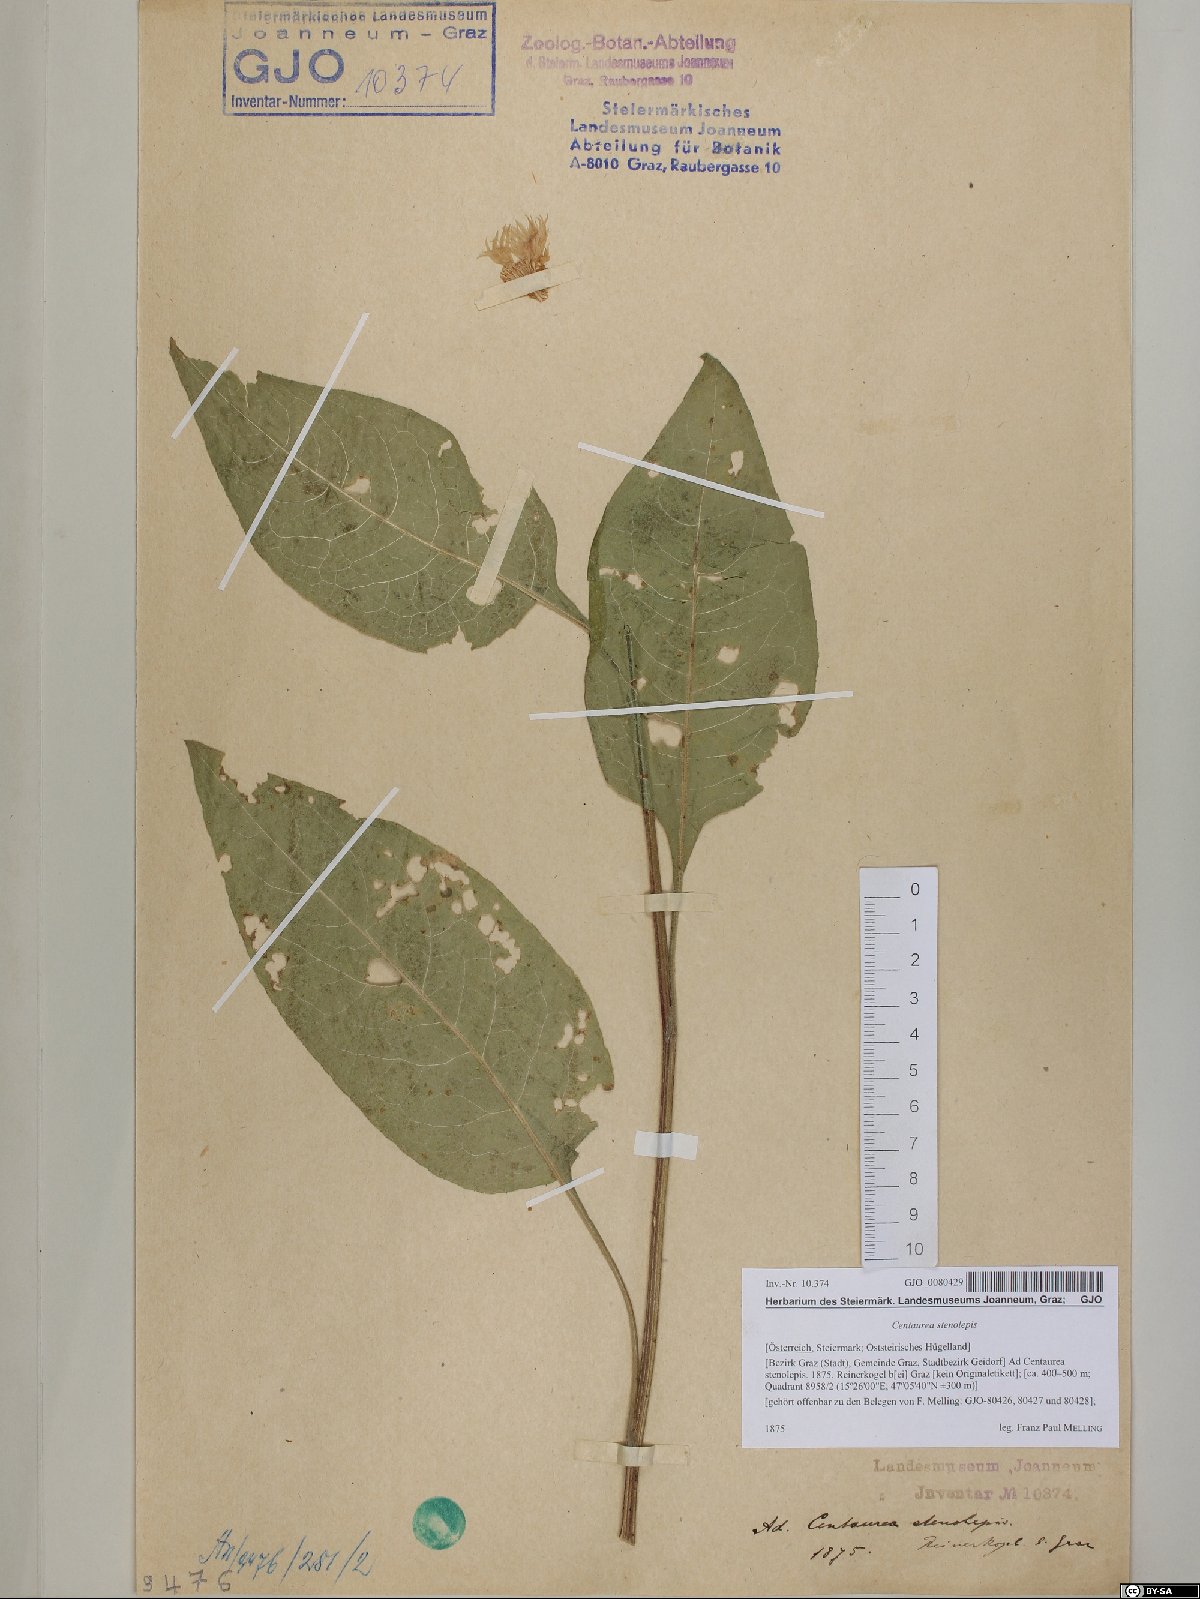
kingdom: Plantae
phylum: Tracheophyta
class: Magnoliopsida
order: Asterales
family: Asteraceae
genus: Centaurea
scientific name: Centaurea stenolepis
